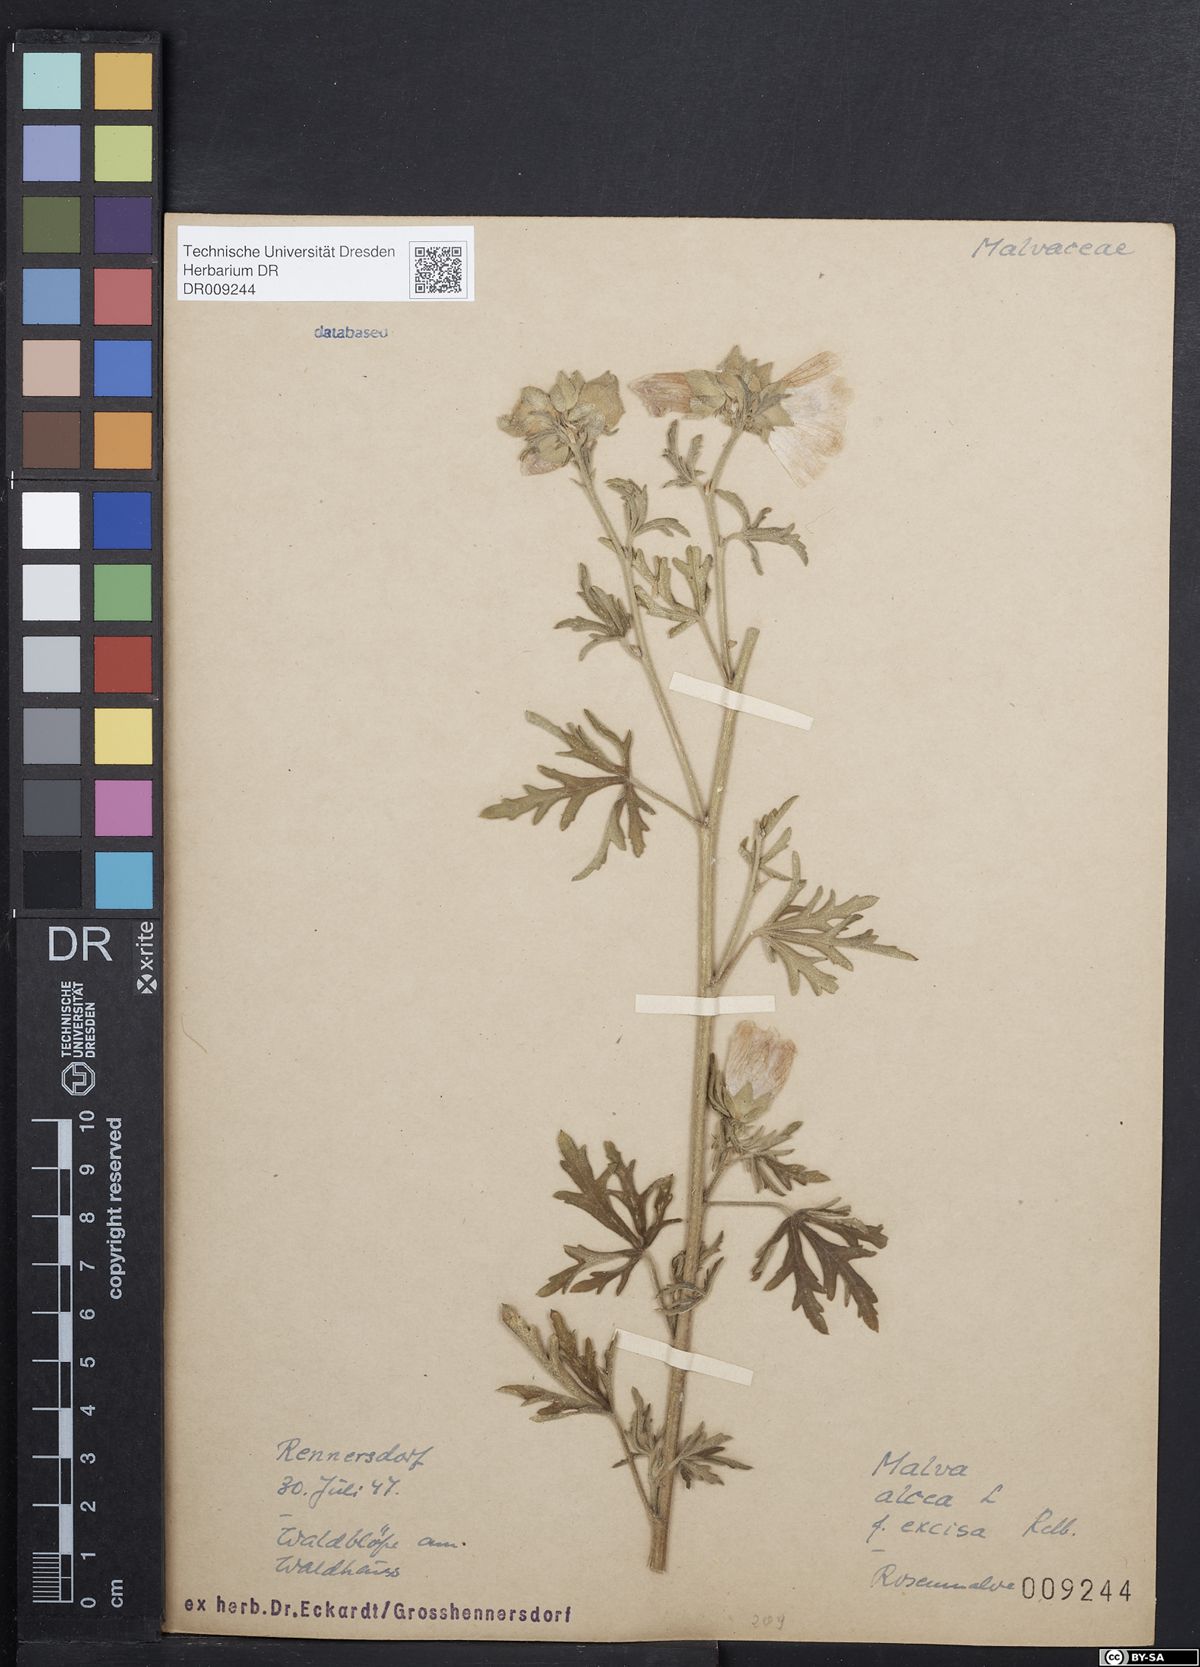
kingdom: Plantae
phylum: Tracheophyta
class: Magnoliopsida
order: Malvales
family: Malvaceae
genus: Malva
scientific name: Malva alcea
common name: Greater musk-mallow
